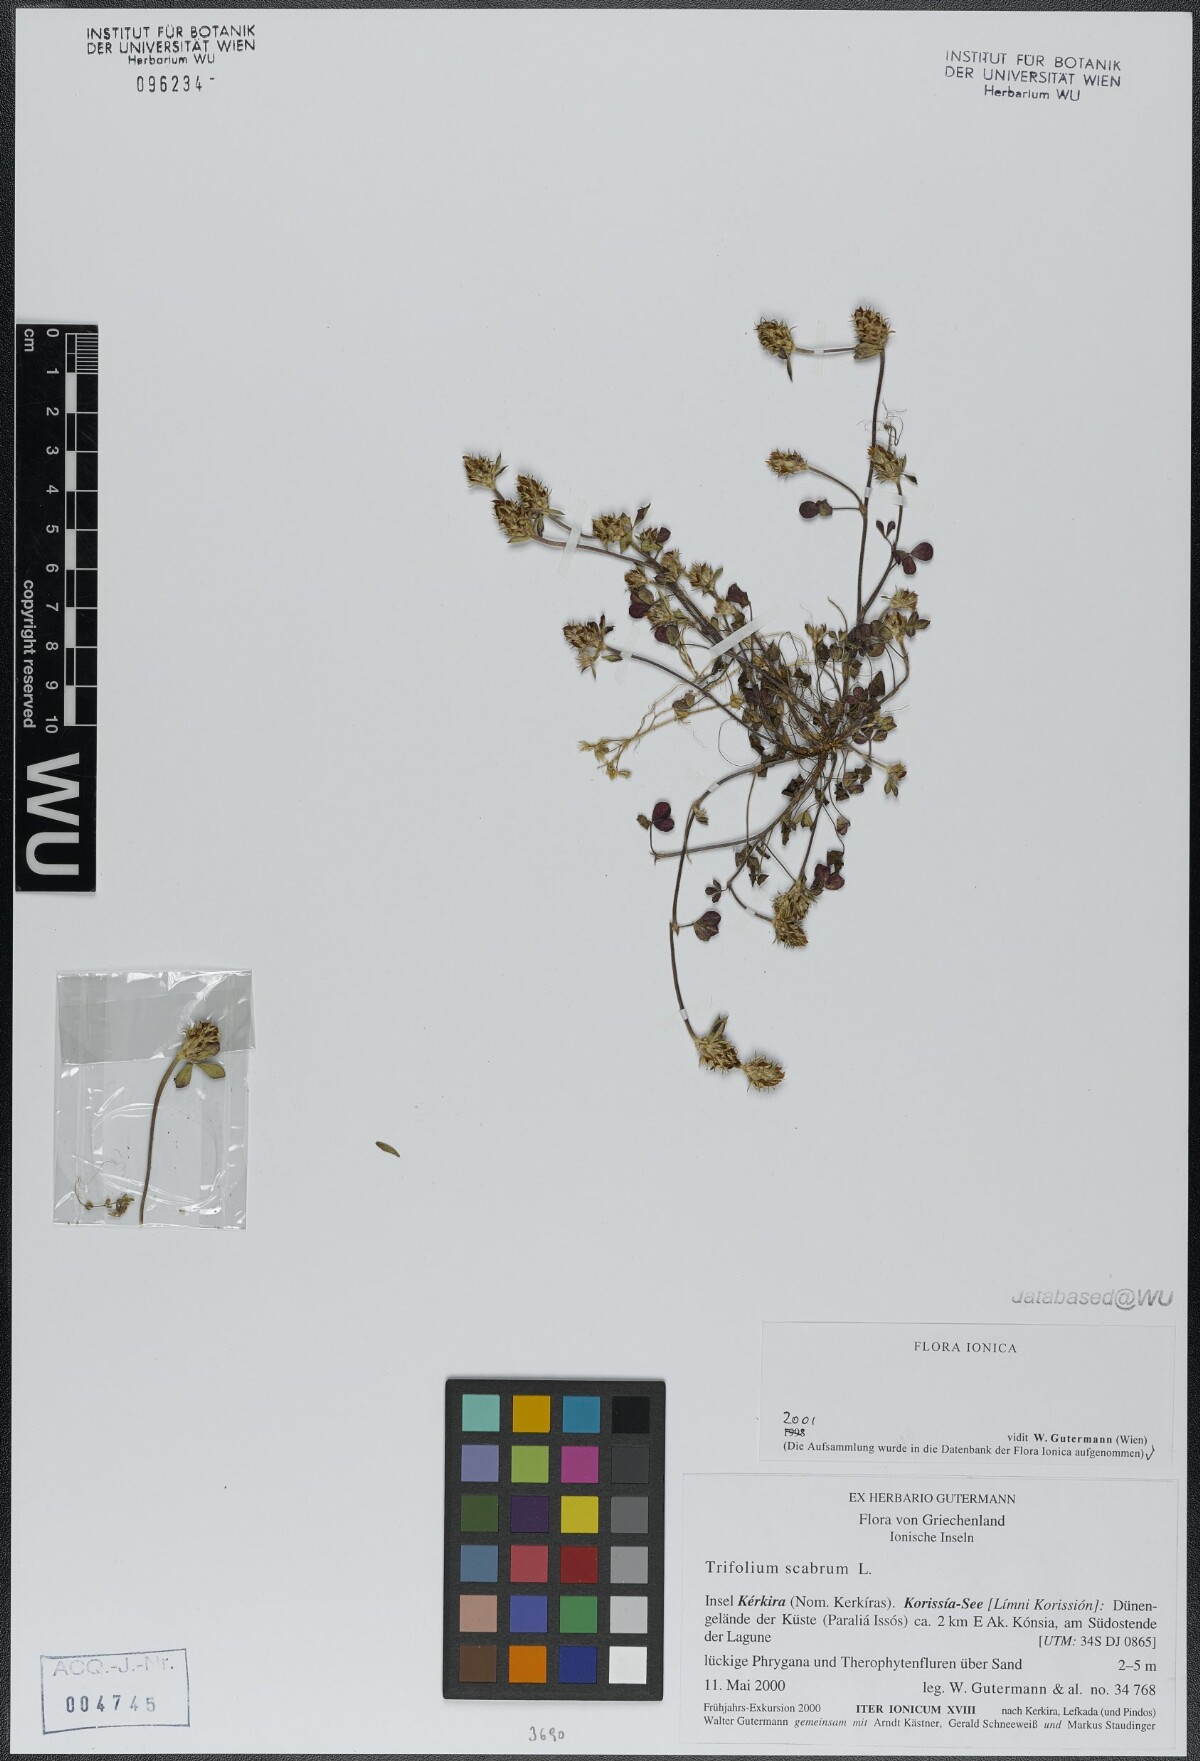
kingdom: Plantae
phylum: Tracheophyta
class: Magnoliopsida
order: Fabales
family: Fabaceae
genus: Trifolium
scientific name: Trifolium scabrum
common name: Rough clover
